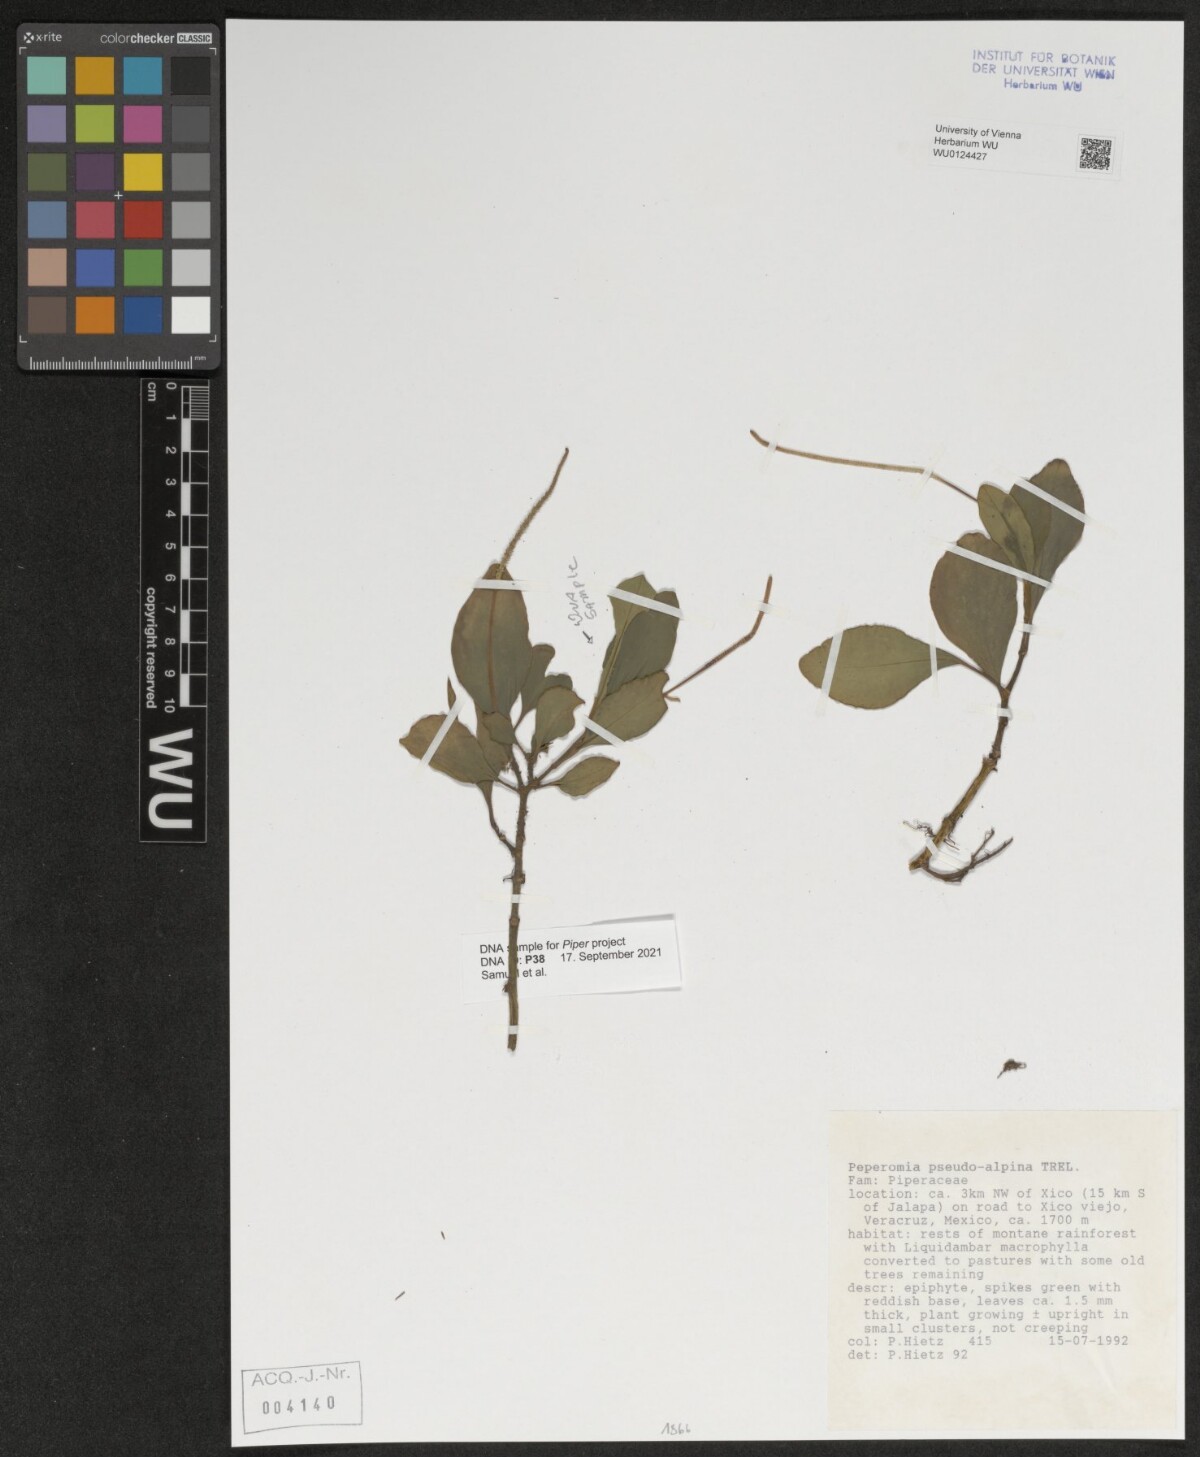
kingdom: Plantae
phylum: Tracheophyta
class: Magnoliopsida
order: Piperales
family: Piperaceae
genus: Peperomia
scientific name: Peperomia pseudoalpina
